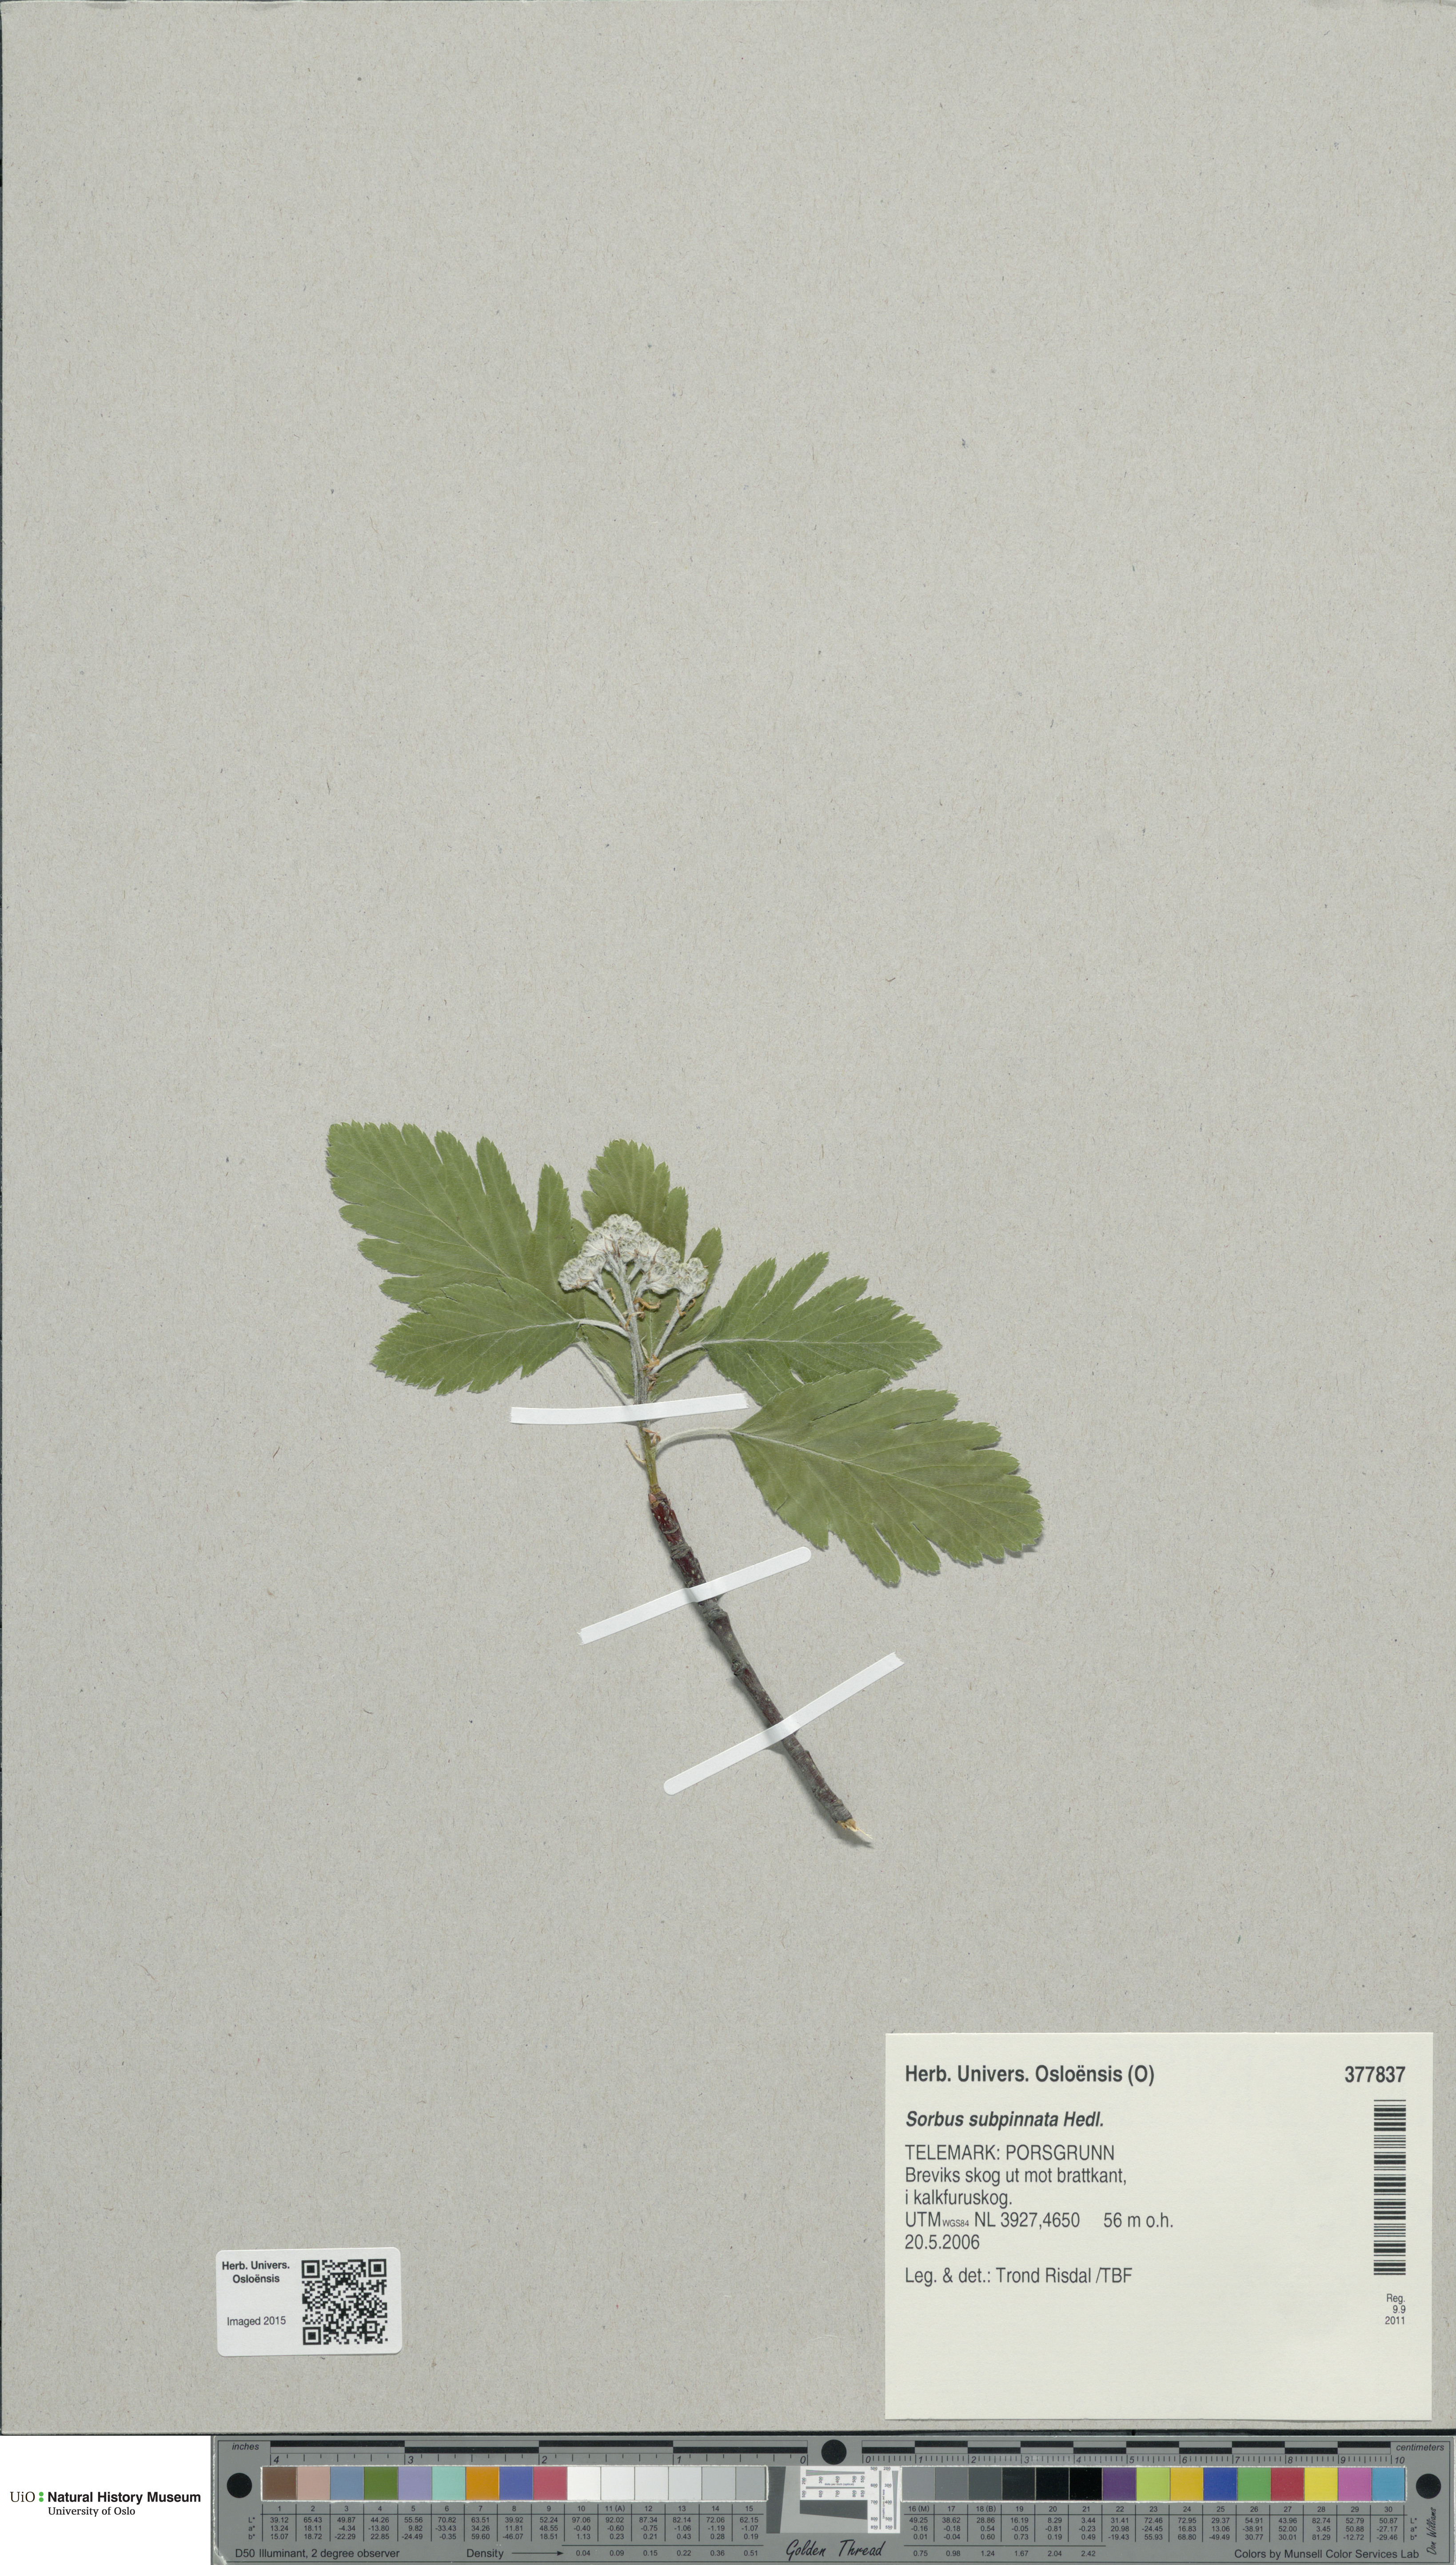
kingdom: Plantae
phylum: Tracheophyta
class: Magnoliopsida
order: Rosales
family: Rosaceae
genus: Hedlundia
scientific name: Hedlundia subpinnata
